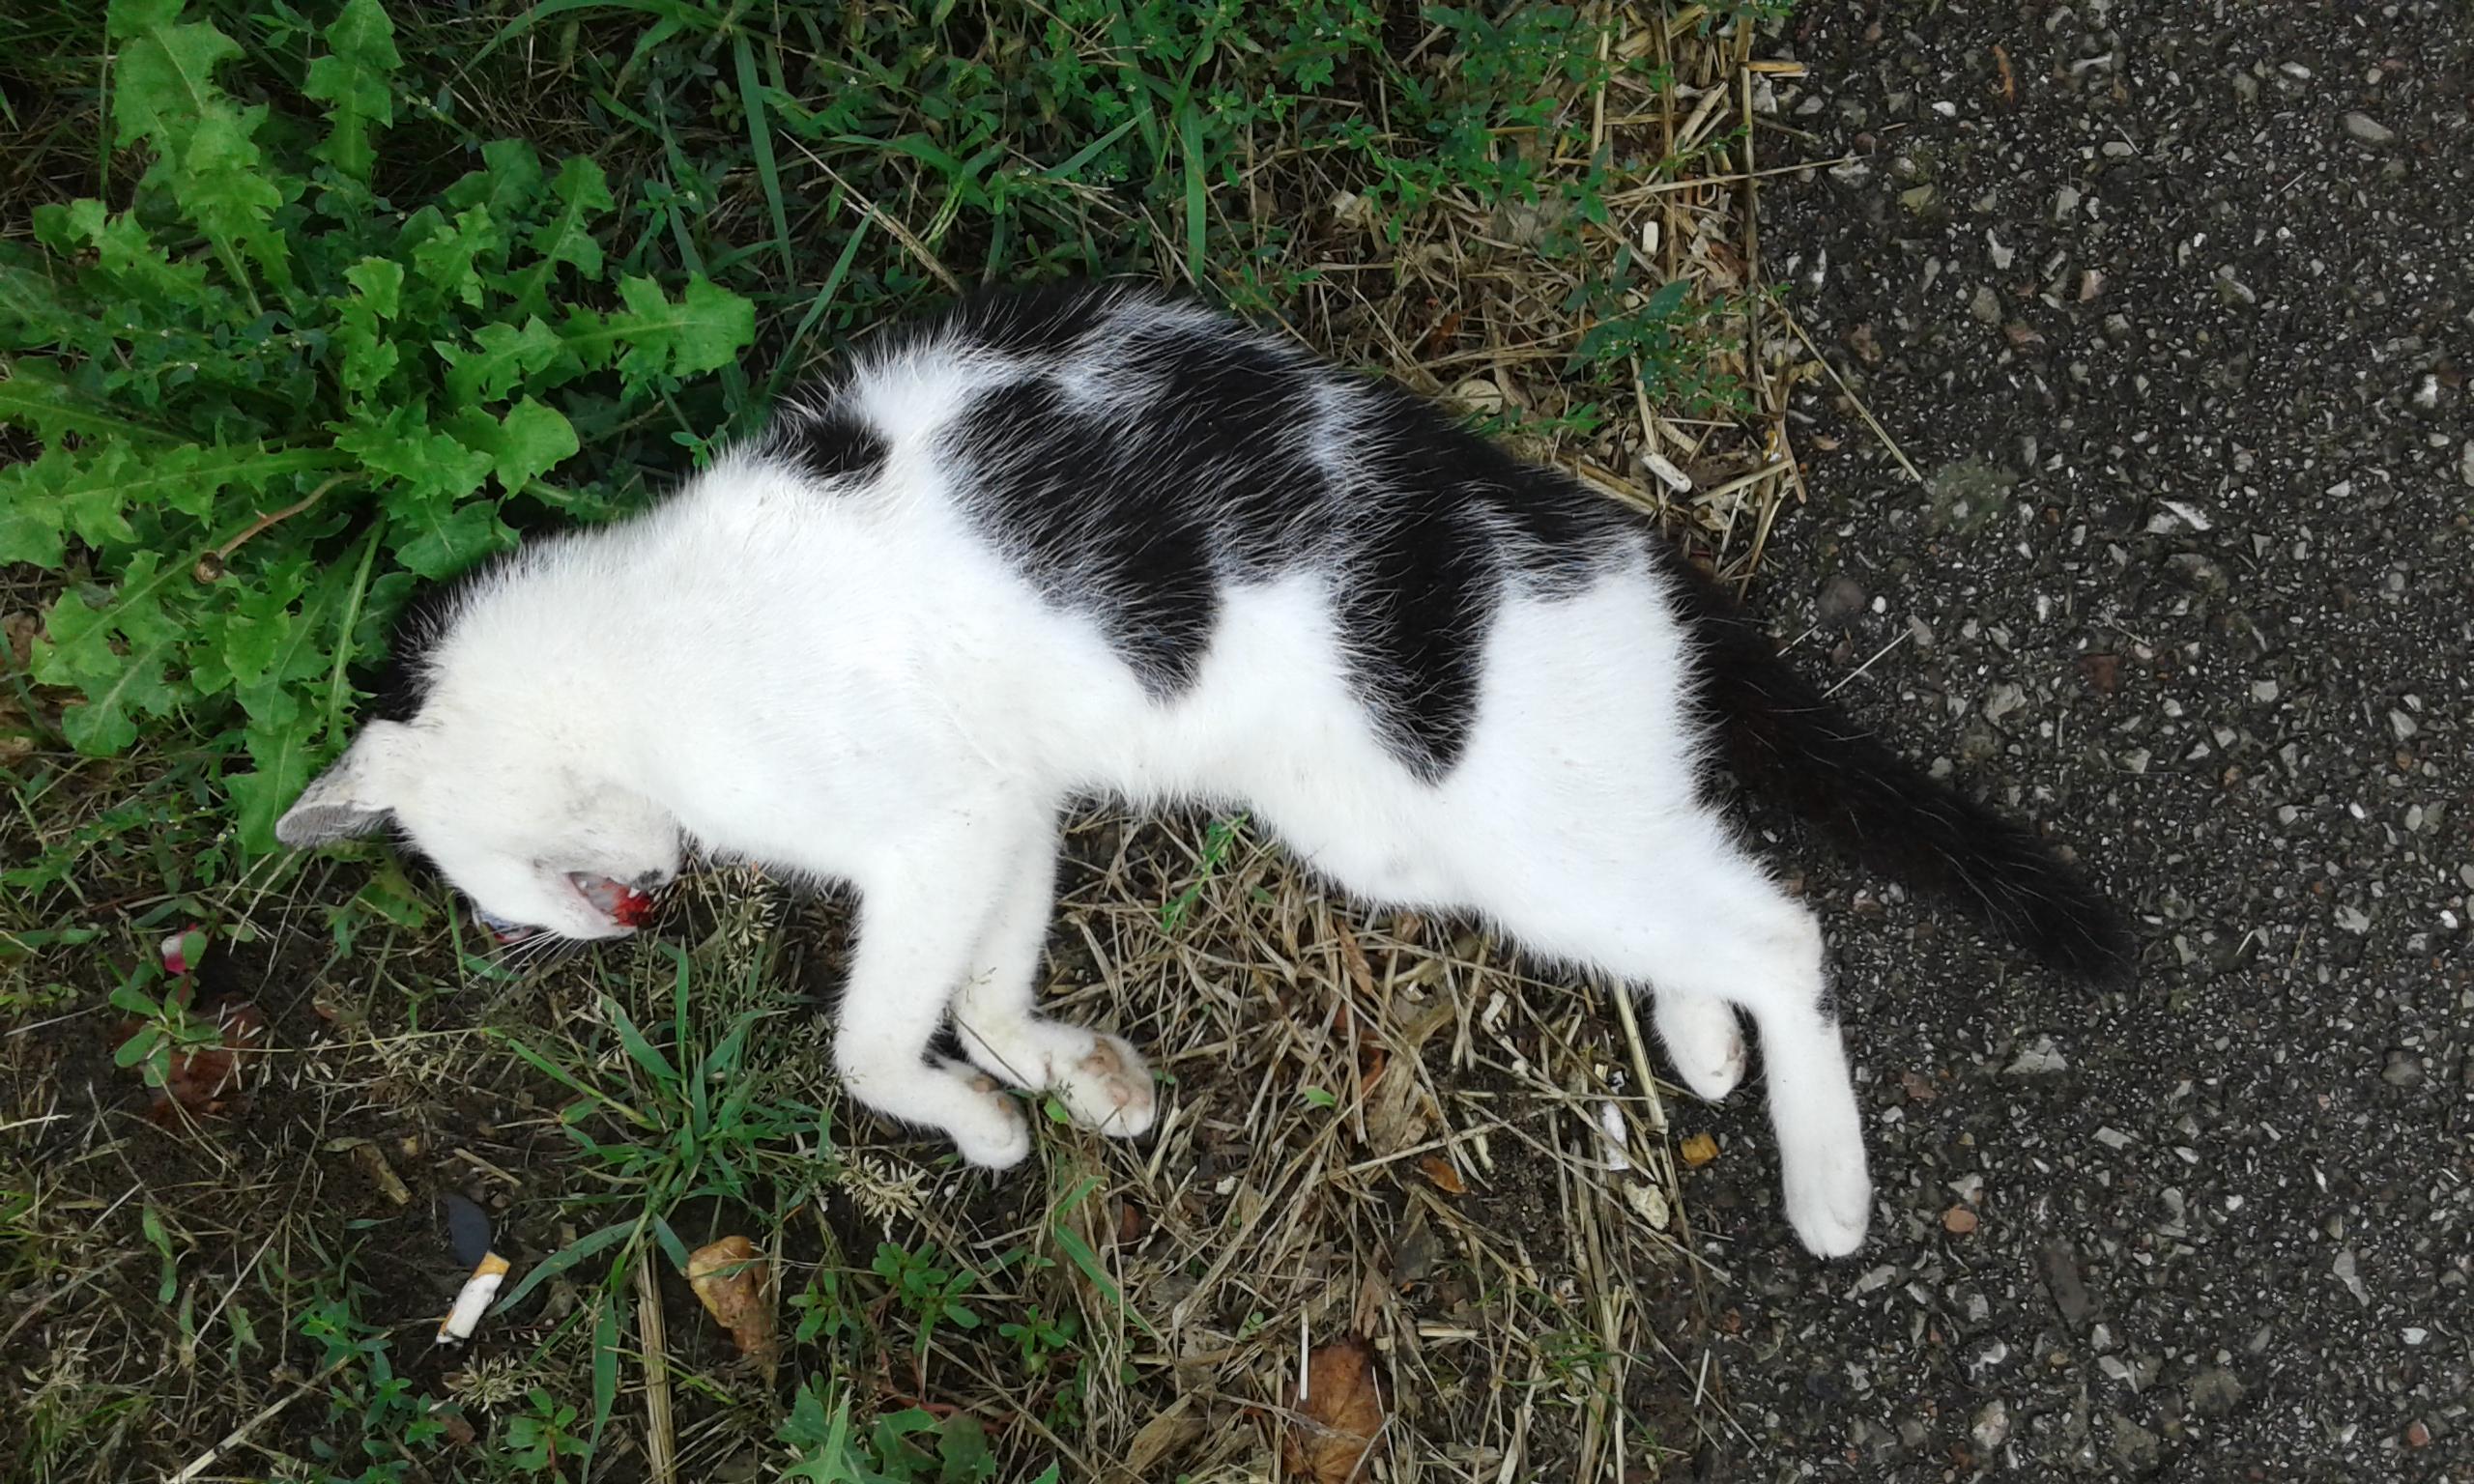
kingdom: Animalia
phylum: Chordata
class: Mammalia
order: Carnivora
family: Felidae
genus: Felis
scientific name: Felis catus
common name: Domestic cat
